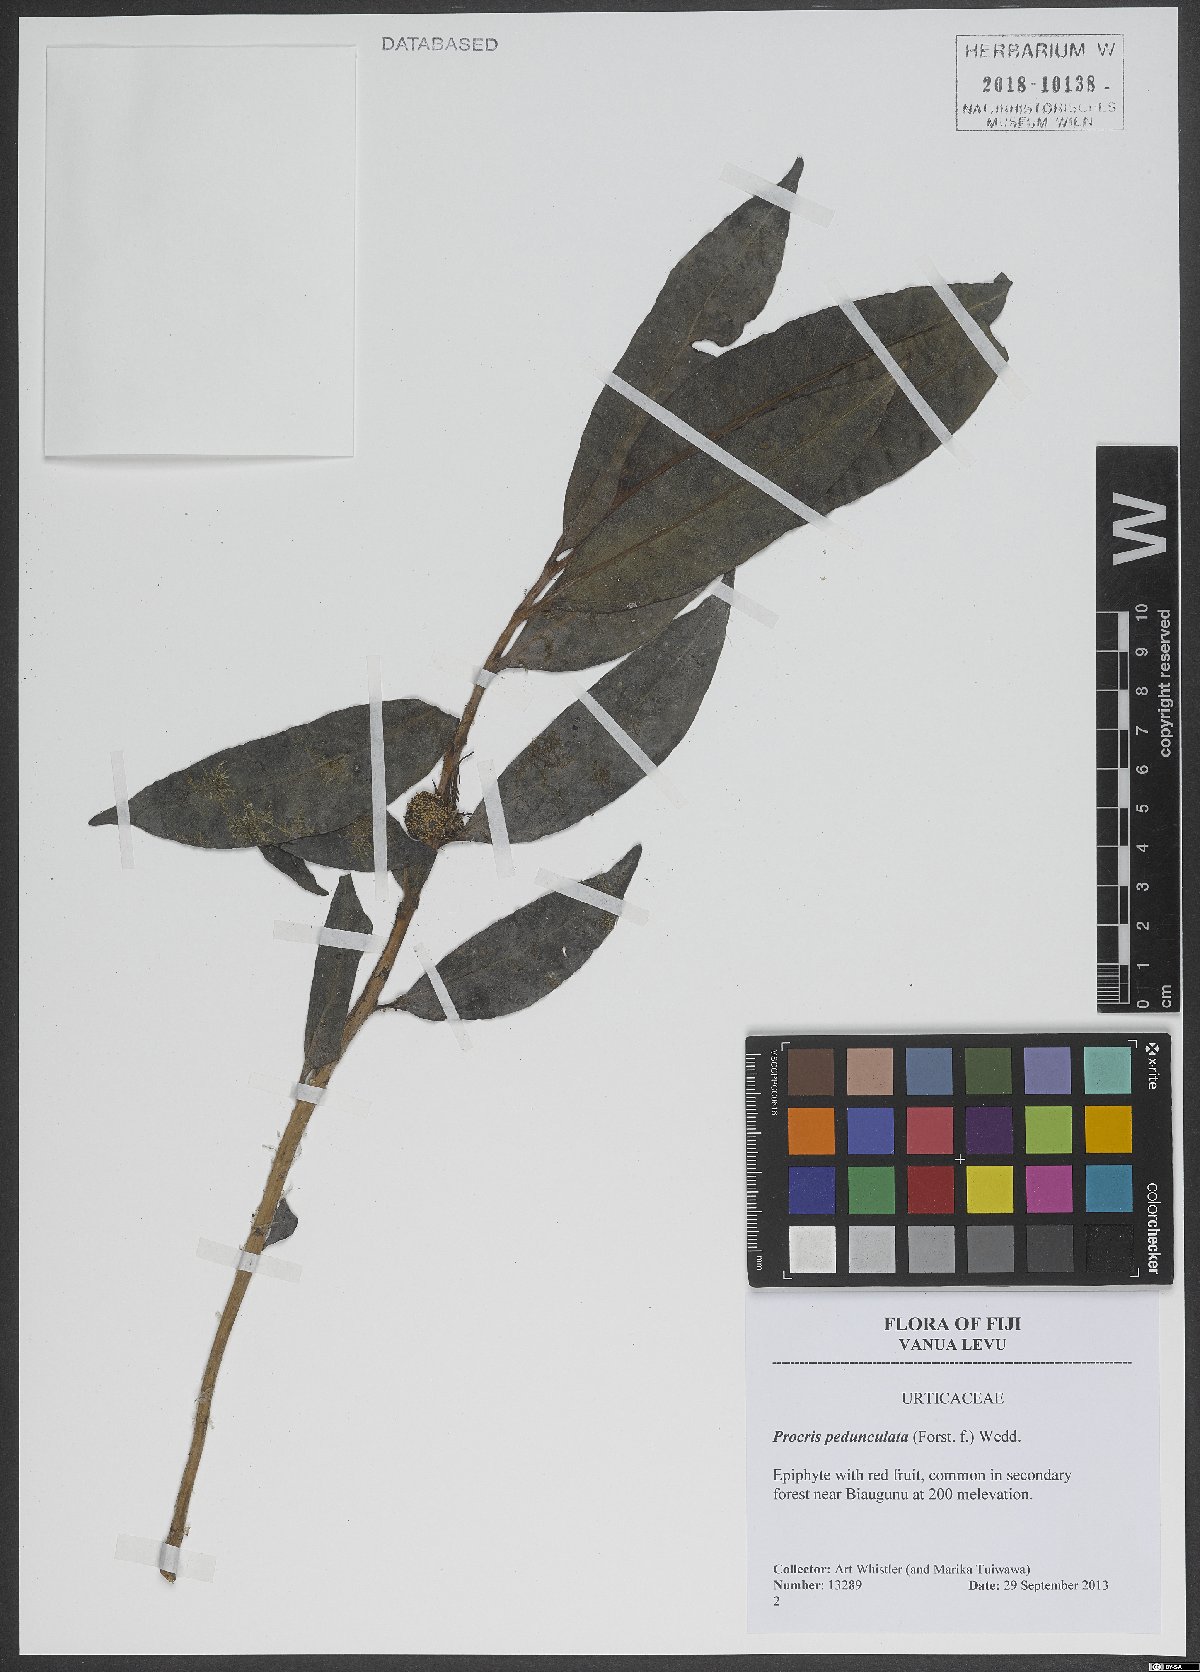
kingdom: Plantae
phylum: Tracheophyta
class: Magnoliopsida
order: Rosales
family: Urticaceae
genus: Procris
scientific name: Procris pedunculata
